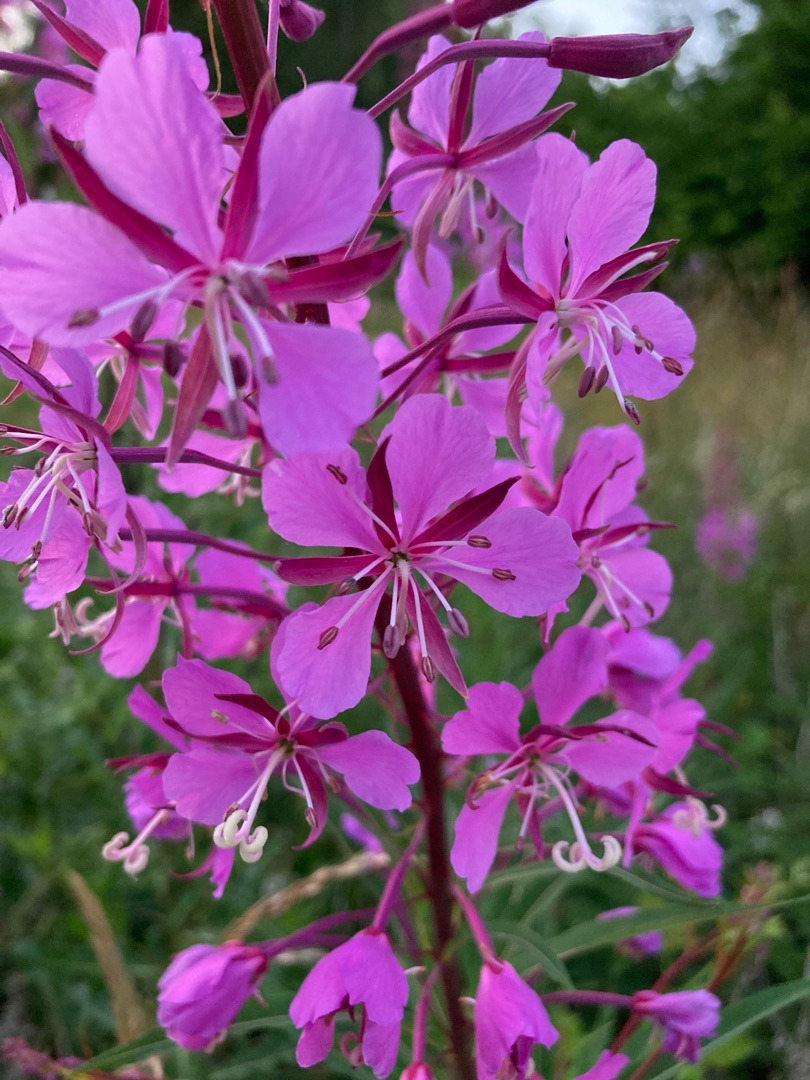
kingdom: Plantae
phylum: Tracheophyta
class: Magnoliopsida
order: Myrtales
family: Onagraceae
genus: Chamaenerion
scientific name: Chamaenerion angustifolium
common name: Gederams
